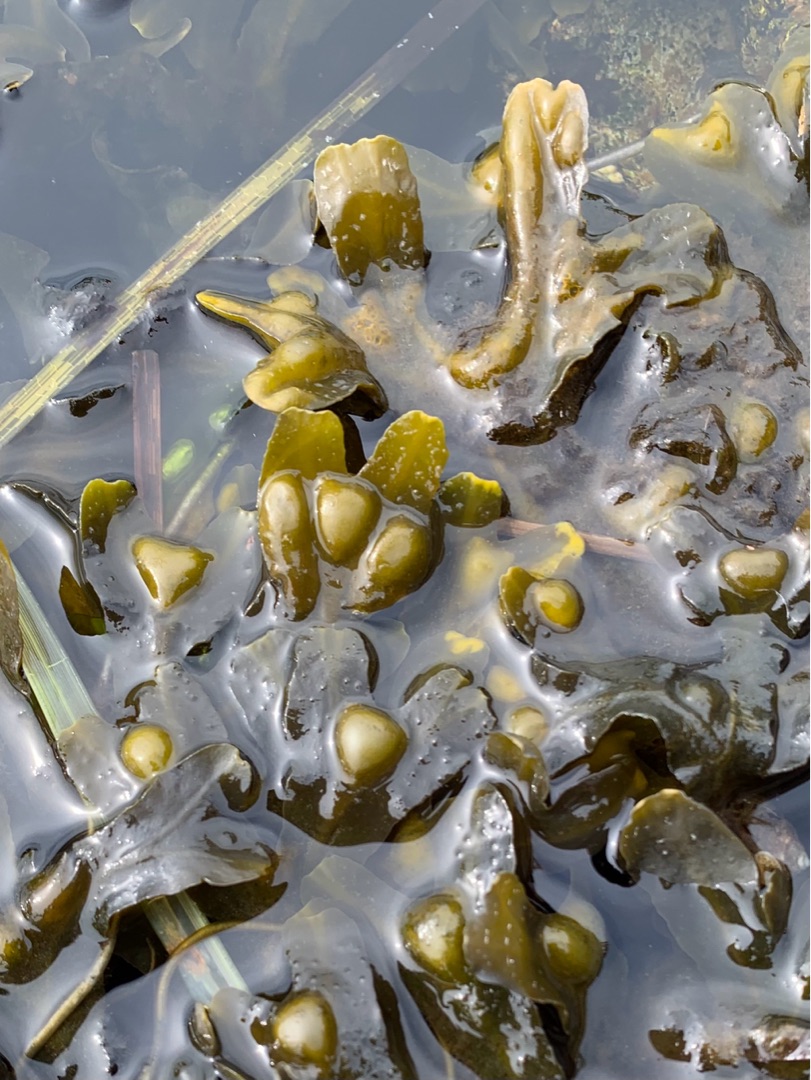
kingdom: Chromista
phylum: Ochrophyta
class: Phaeophyceae
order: Fucales
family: Fucaceae
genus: Fucus
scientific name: Fucus vesiculosus
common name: Blæretang
